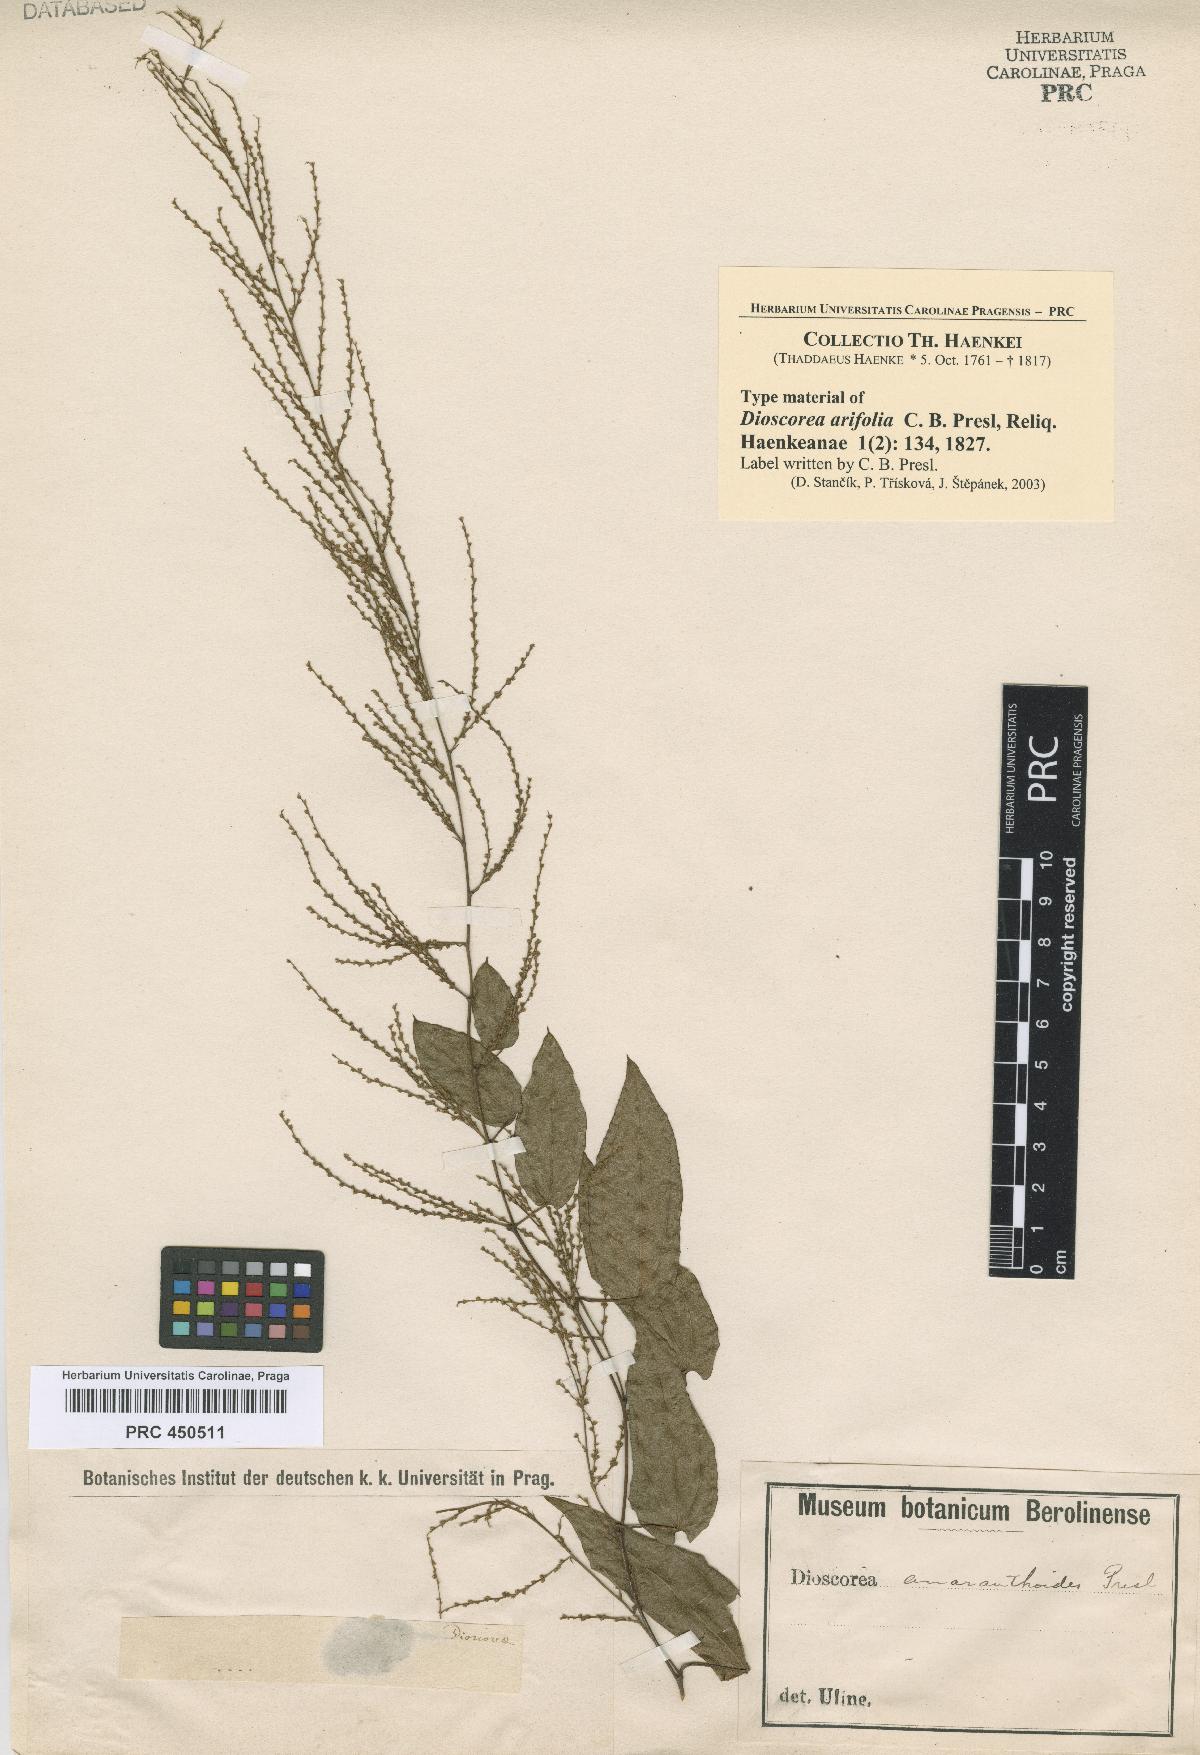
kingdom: Plantae
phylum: Tracheophyta
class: Liliopsida
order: Dioscoreales
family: Dioscoreaceae
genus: Dioscorea
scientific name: Dioscorea amaranthoides
